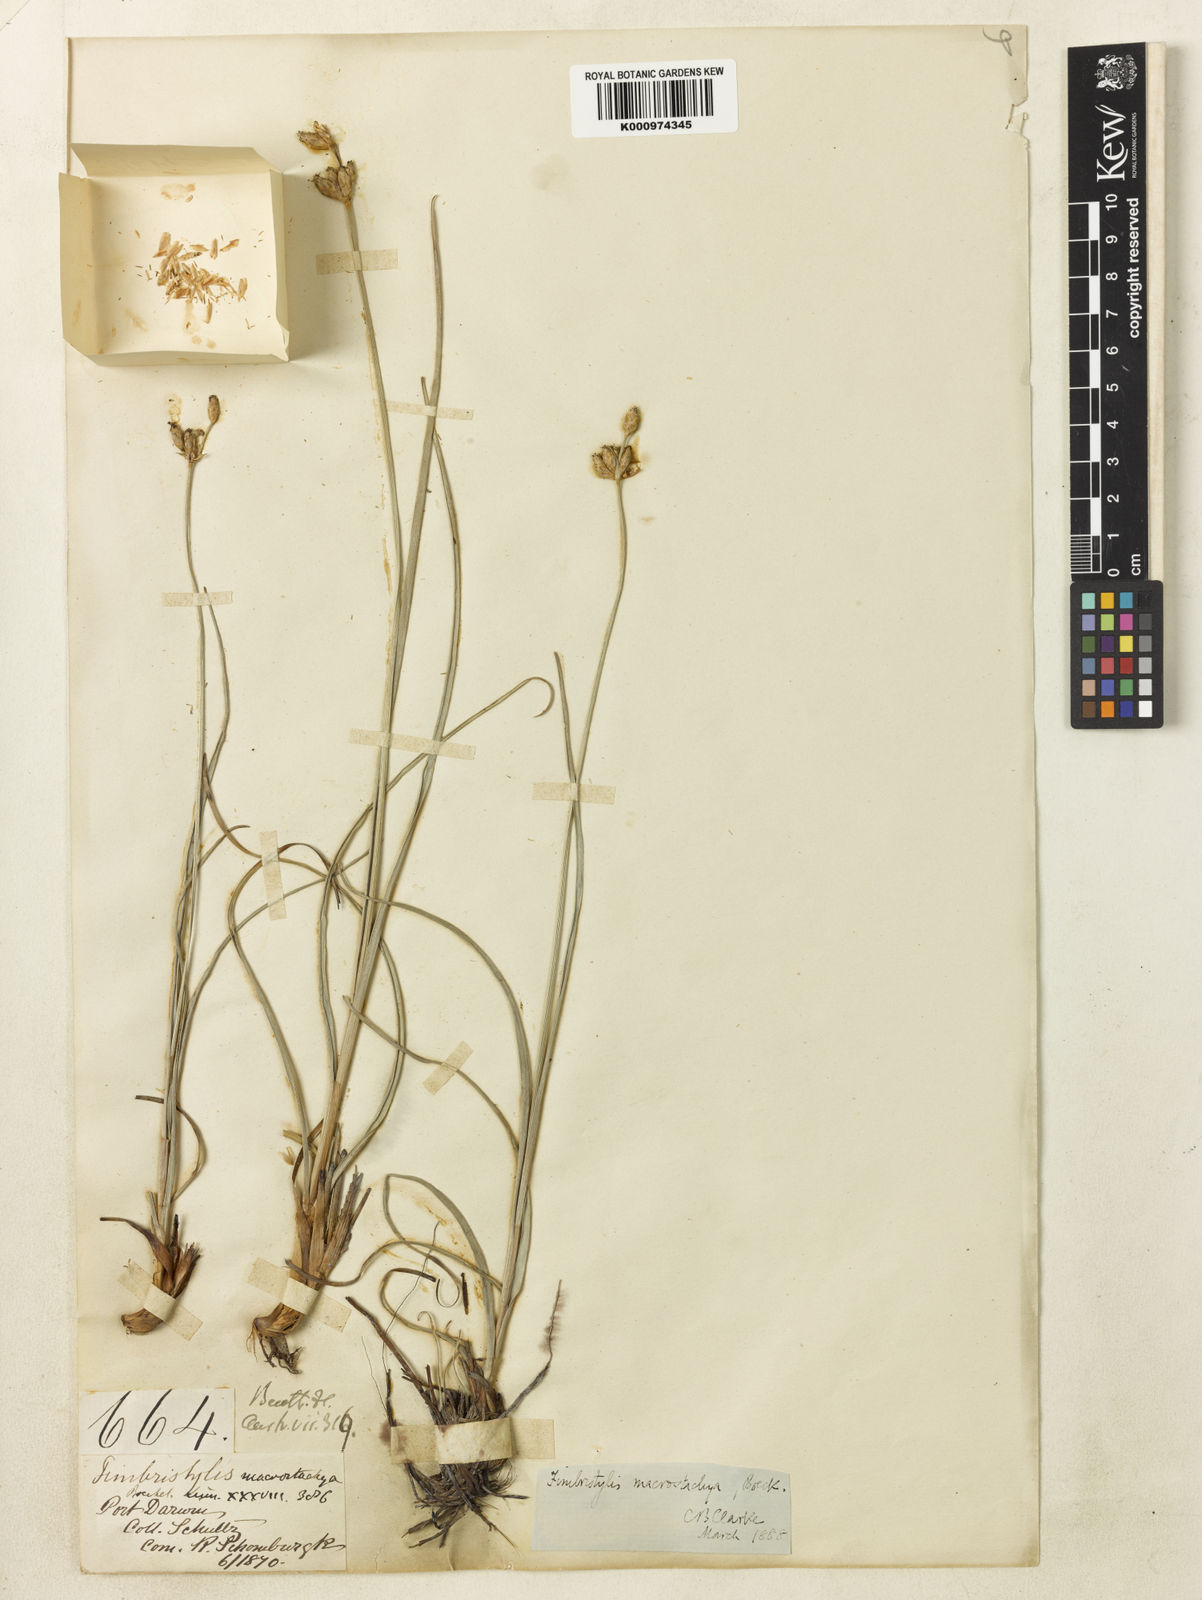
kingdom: Plantae
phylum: Tracheophyta
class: Liliopsida
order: Poales
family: Cyperaceae
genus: Fimbristylis
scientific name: Fimbristylis tristachya
